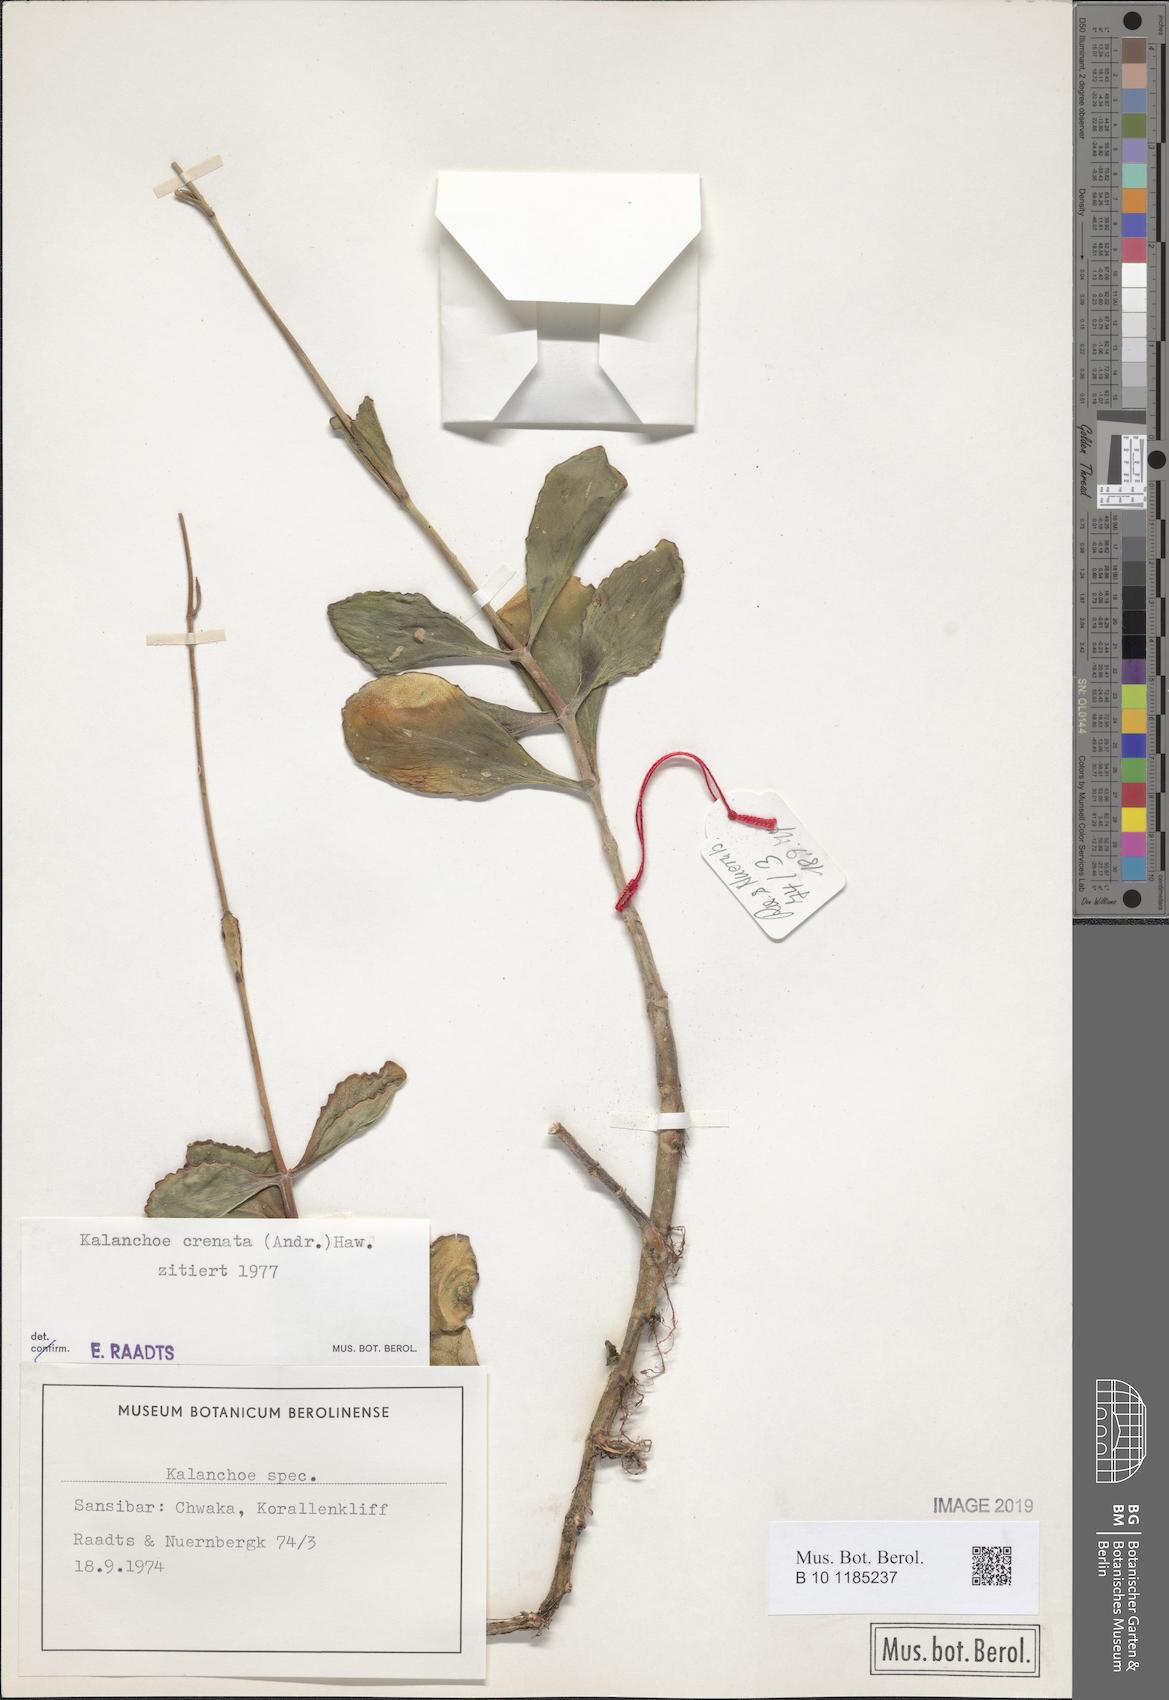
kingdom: Plantae
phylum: Tracheophyta
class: Magnoliopsida
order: Saxifragales
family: Crassulaceae
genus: Kalanchoe
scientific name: Kalanchoe crenata
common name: Neverdie
